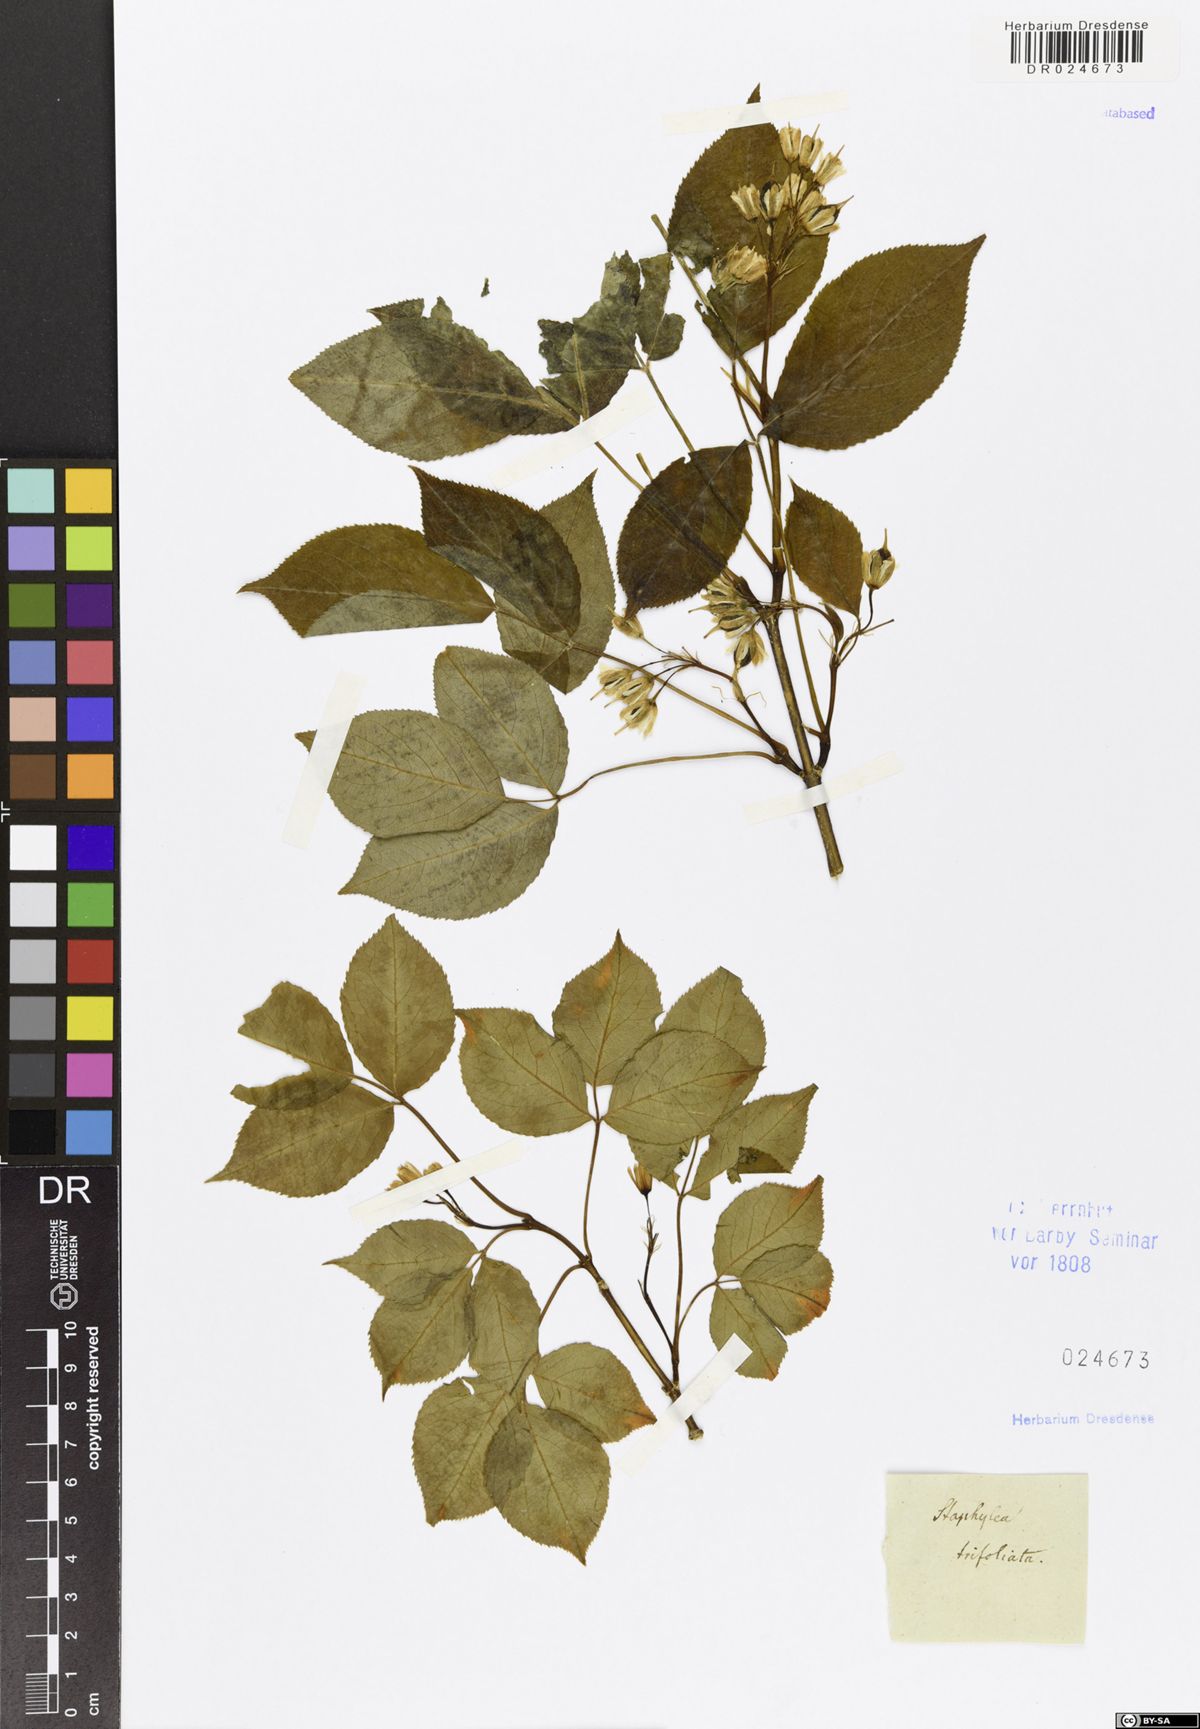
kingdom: Plantae
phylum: Tracheophyta
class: Magnoliopsida
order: Crossosomatales
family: Staphyleaceae
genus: Staphylea
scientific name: Staphylea trifolia
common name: American bladdernut
